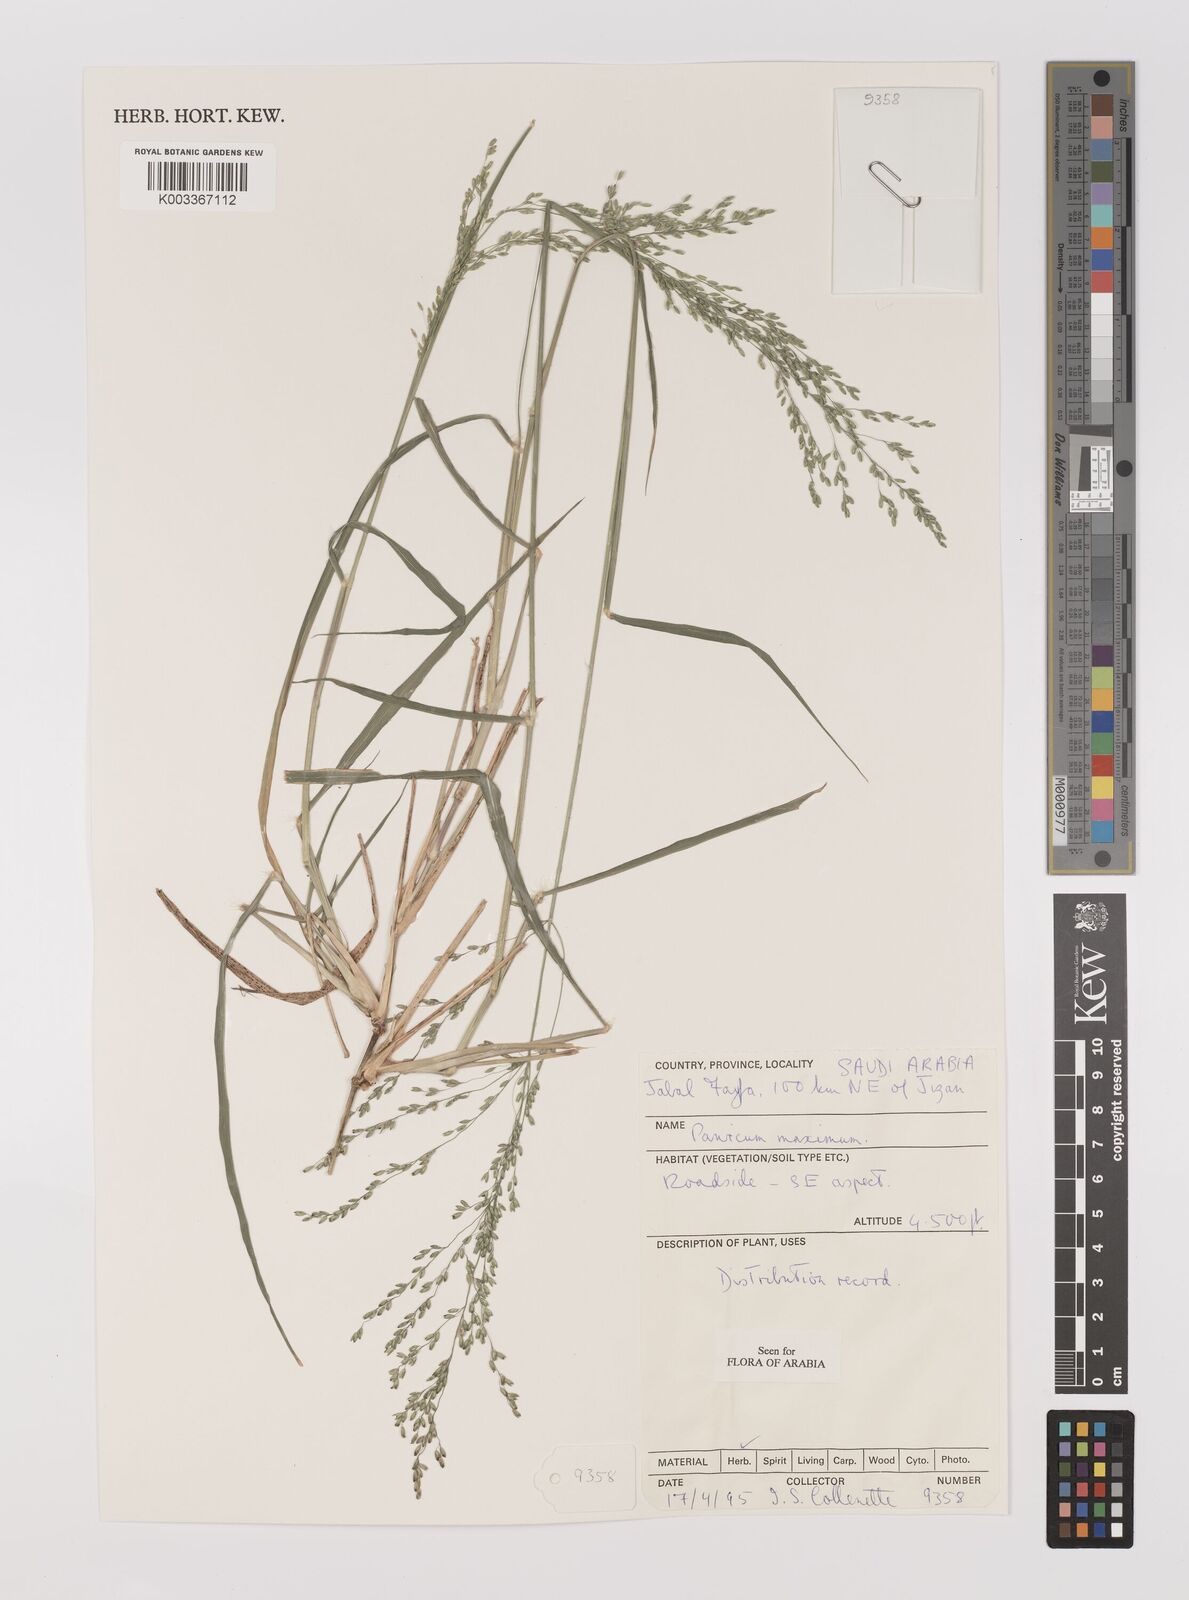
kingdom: Plantae
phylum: Tracheophyta
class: Liliopsida
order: Poales
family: Poaceae
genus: Megathyrsus
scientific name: Megathyrsus maximus
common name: Guineagrass
